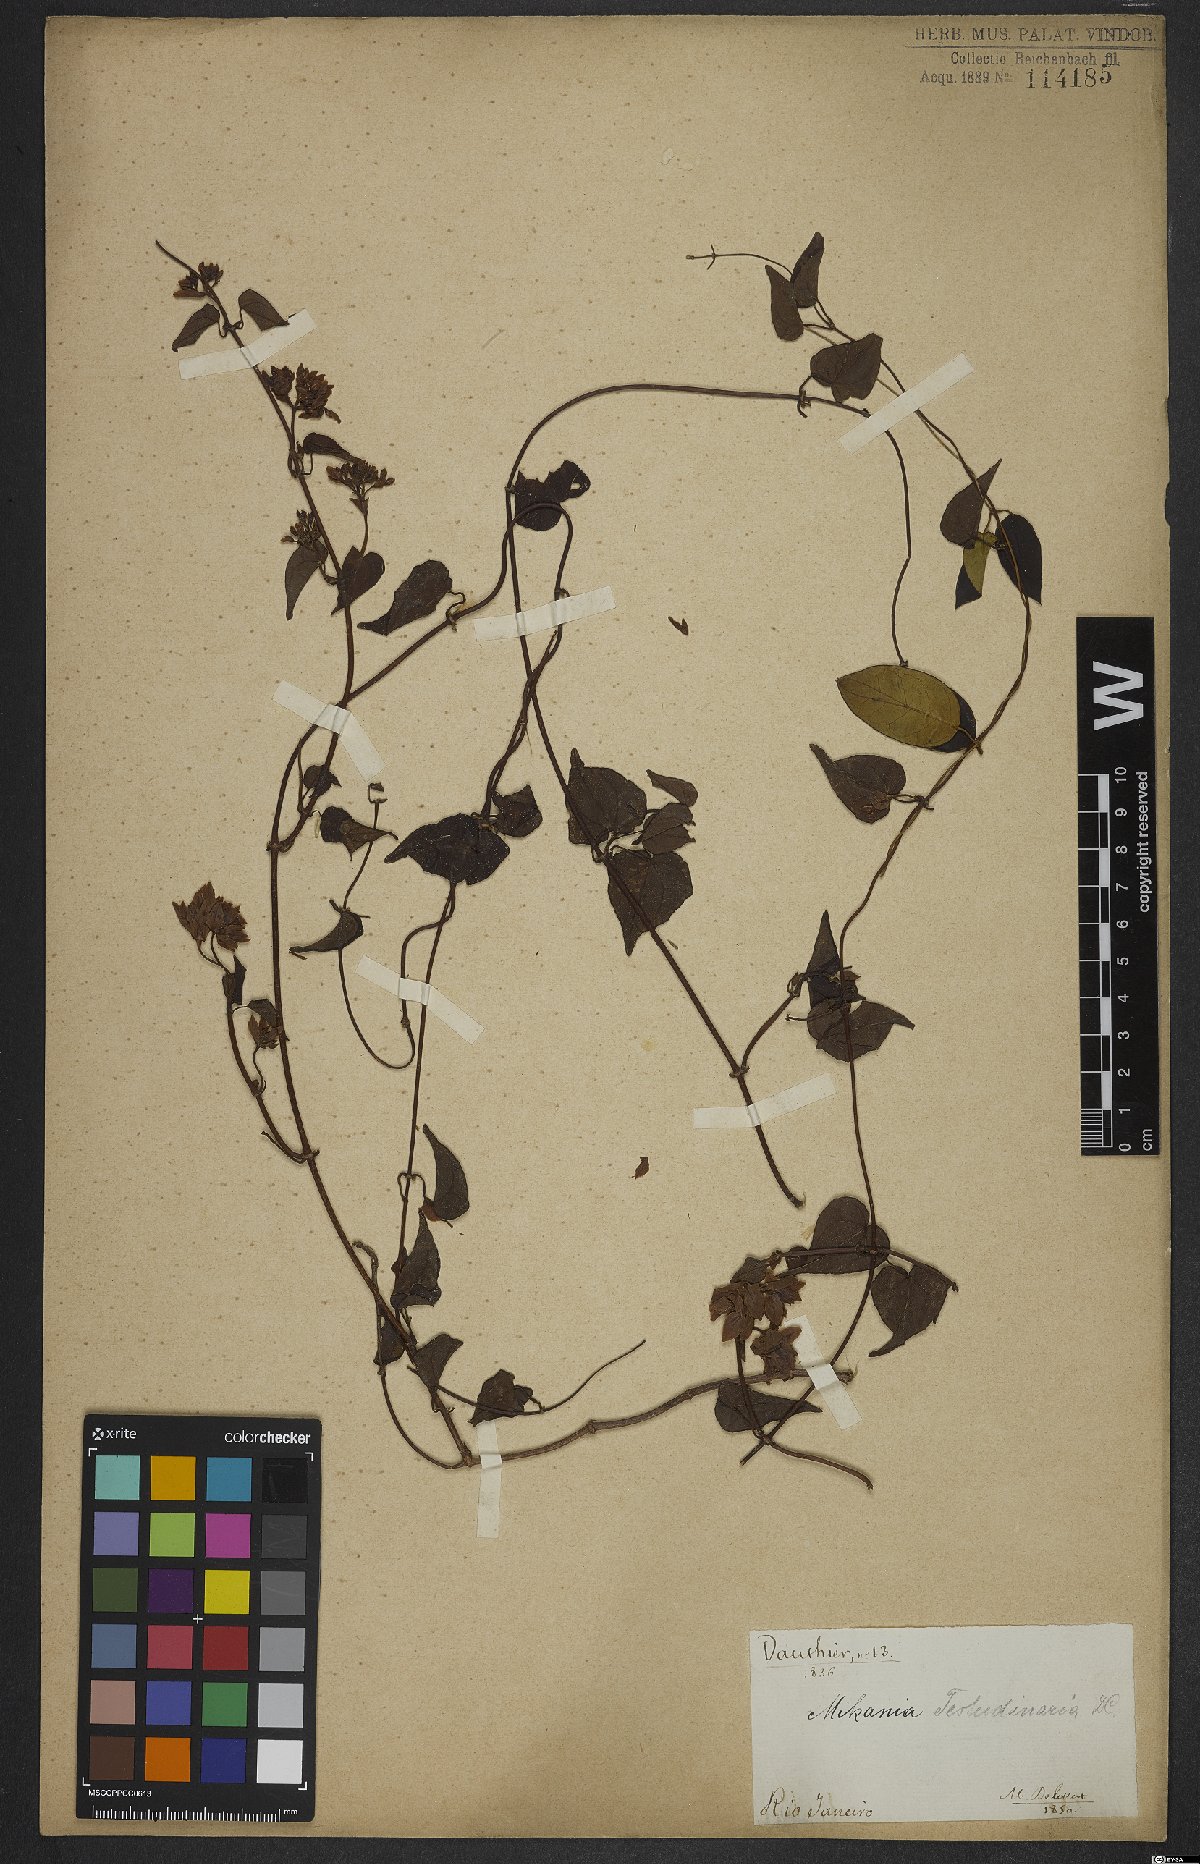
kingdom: Plantae
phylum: Tracheophyta
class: Magnoliopsida
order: Asterales
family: Asteraceae
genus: Mikania
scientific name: Mikania testudinaria
